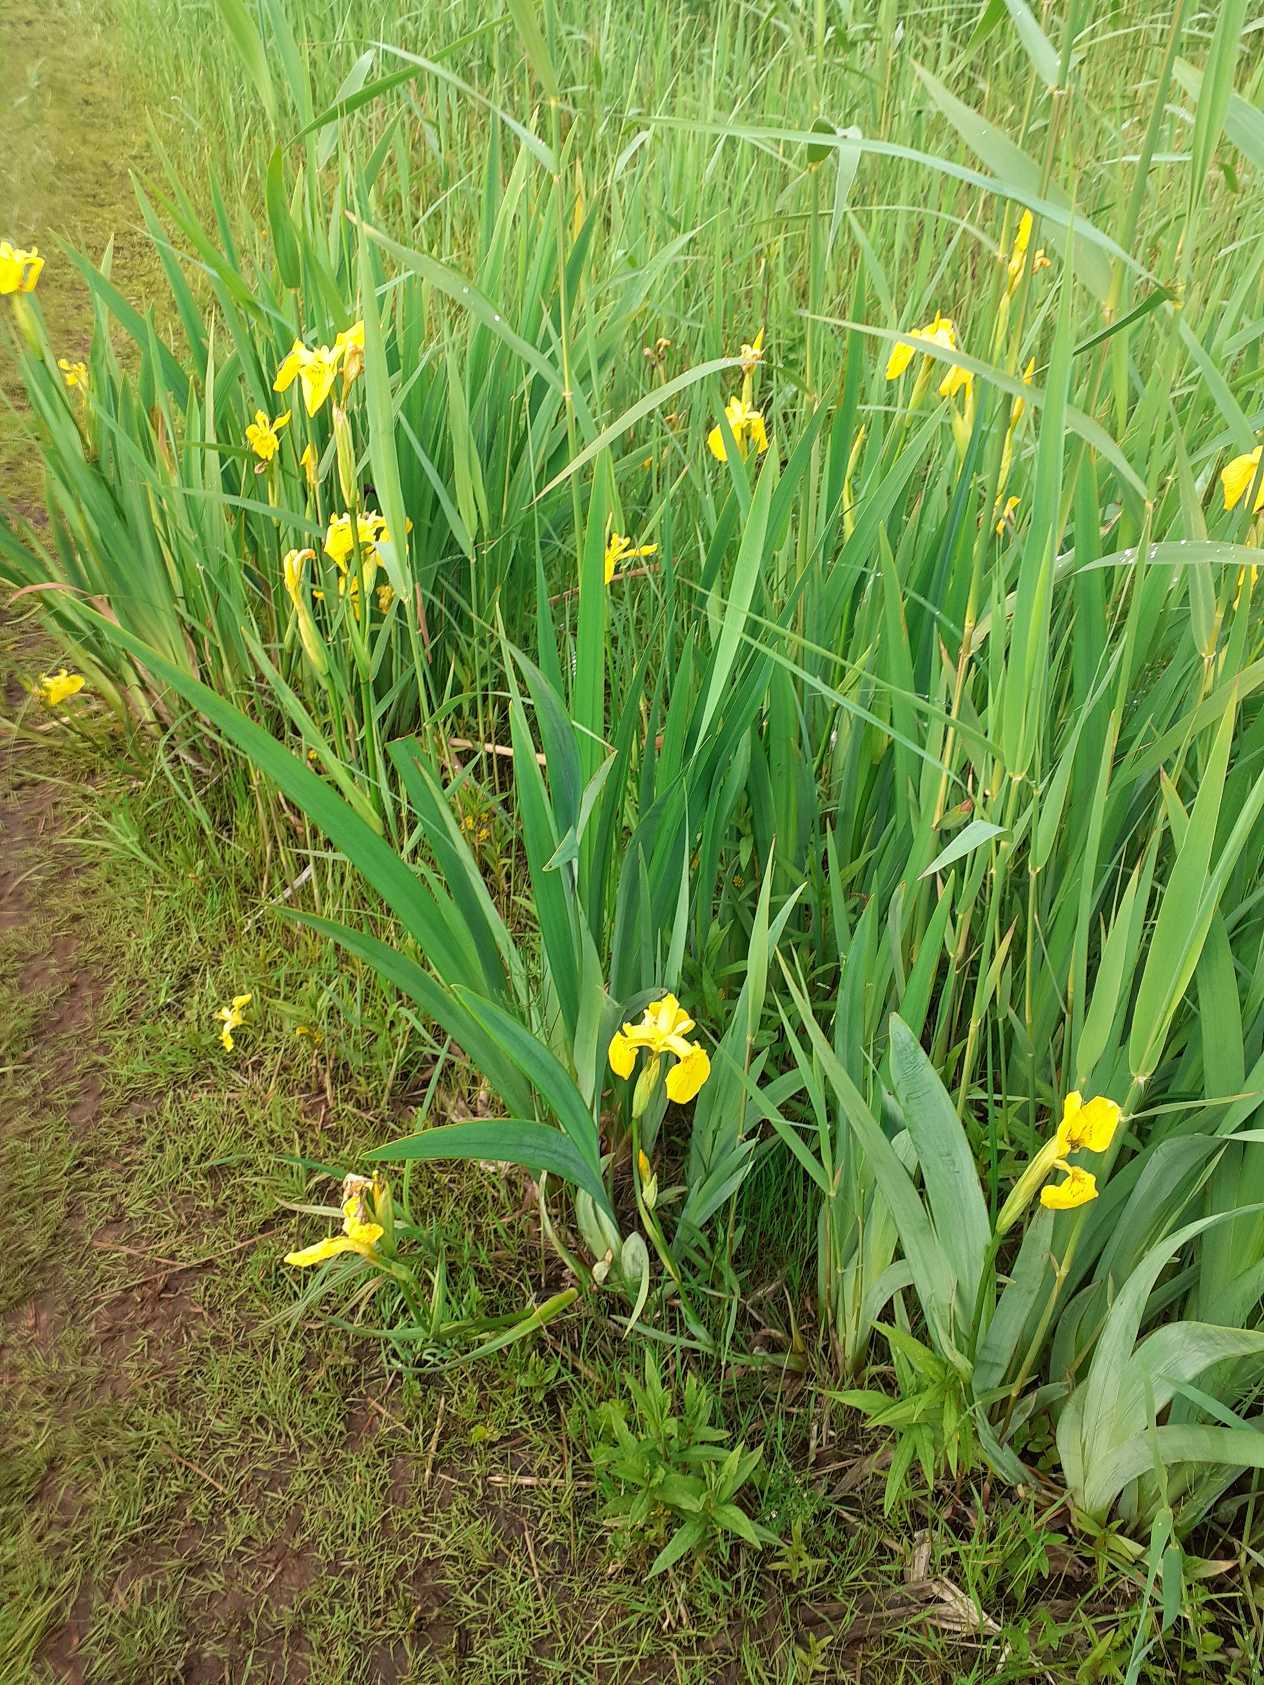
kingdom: Plantae
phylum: Tracheophyta
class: Liliopsida
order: Asparagales
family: Iridaceae
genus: Iris
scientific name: Iris pseudacorus
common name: Gul iris
